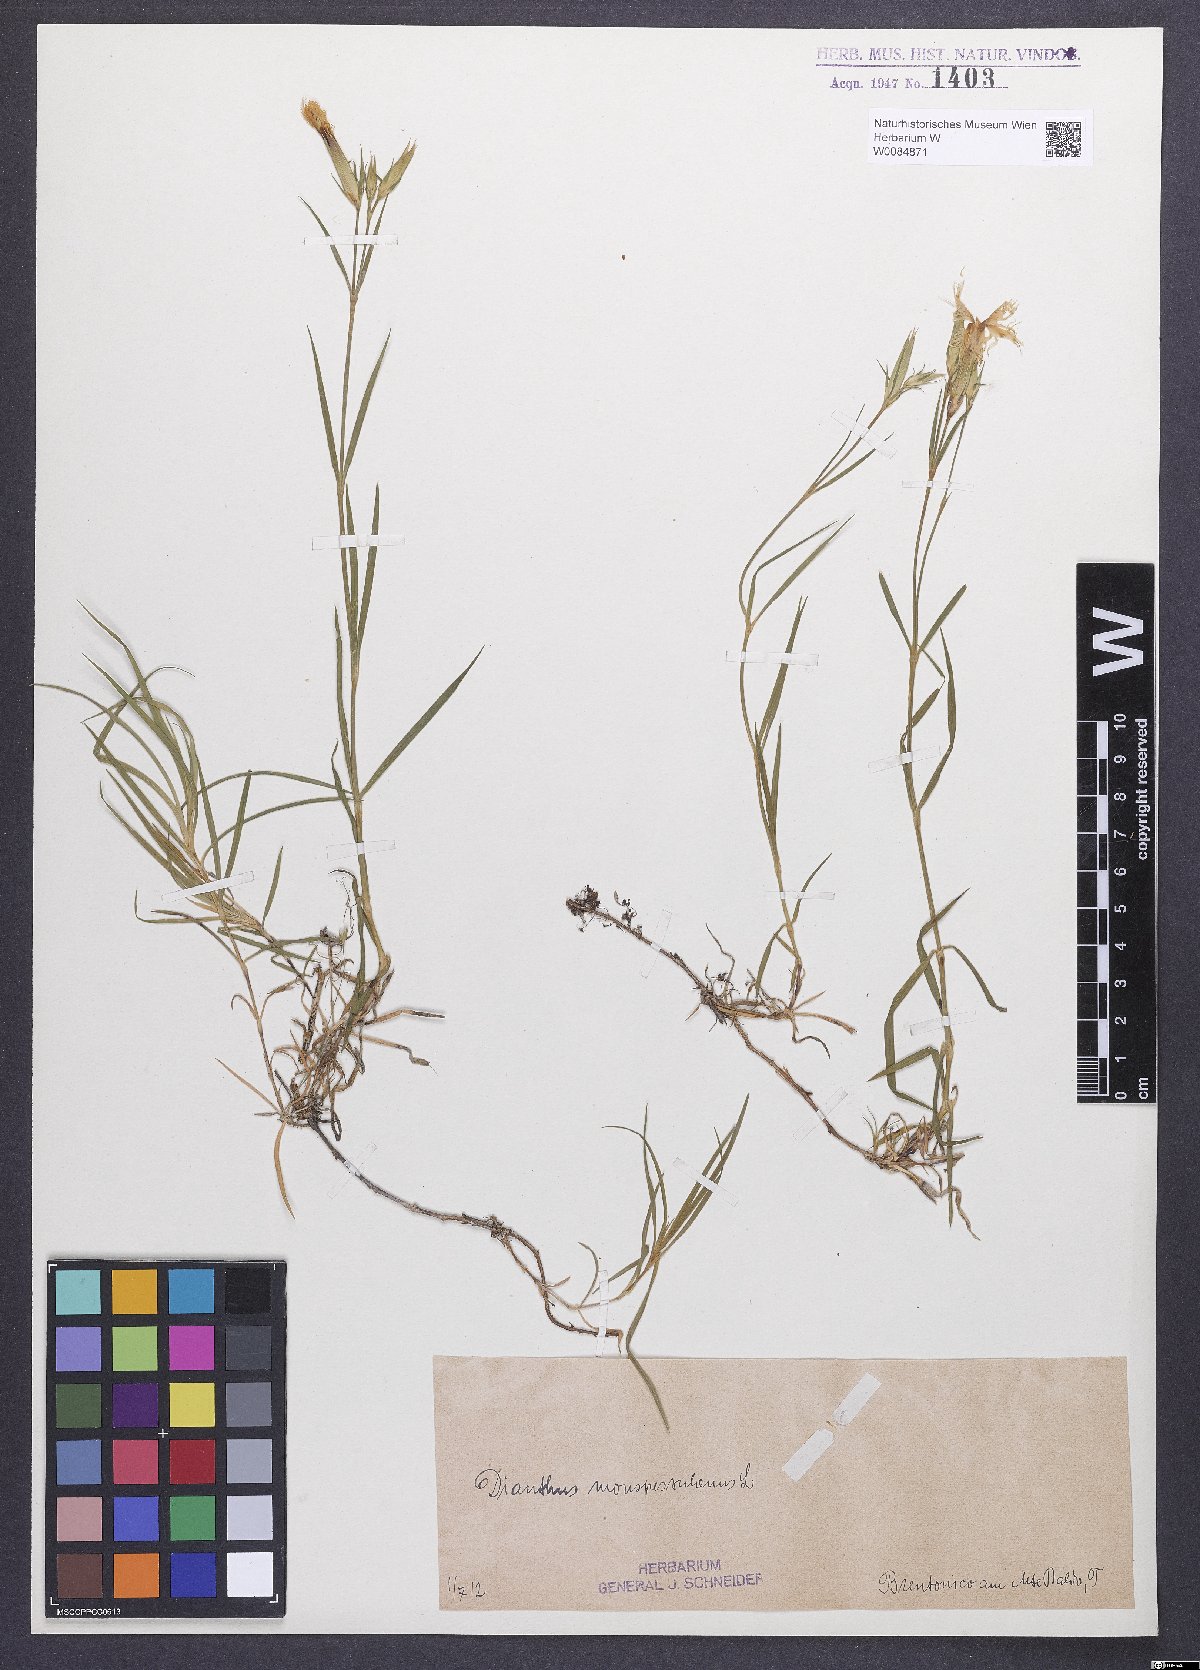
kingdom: Plantae
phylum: Tracheophyta
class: Magnoliopsida
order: Caryophyllales
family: Caryophyllaceae
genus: Dianthus
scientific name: Dianthus hyssopifolius
